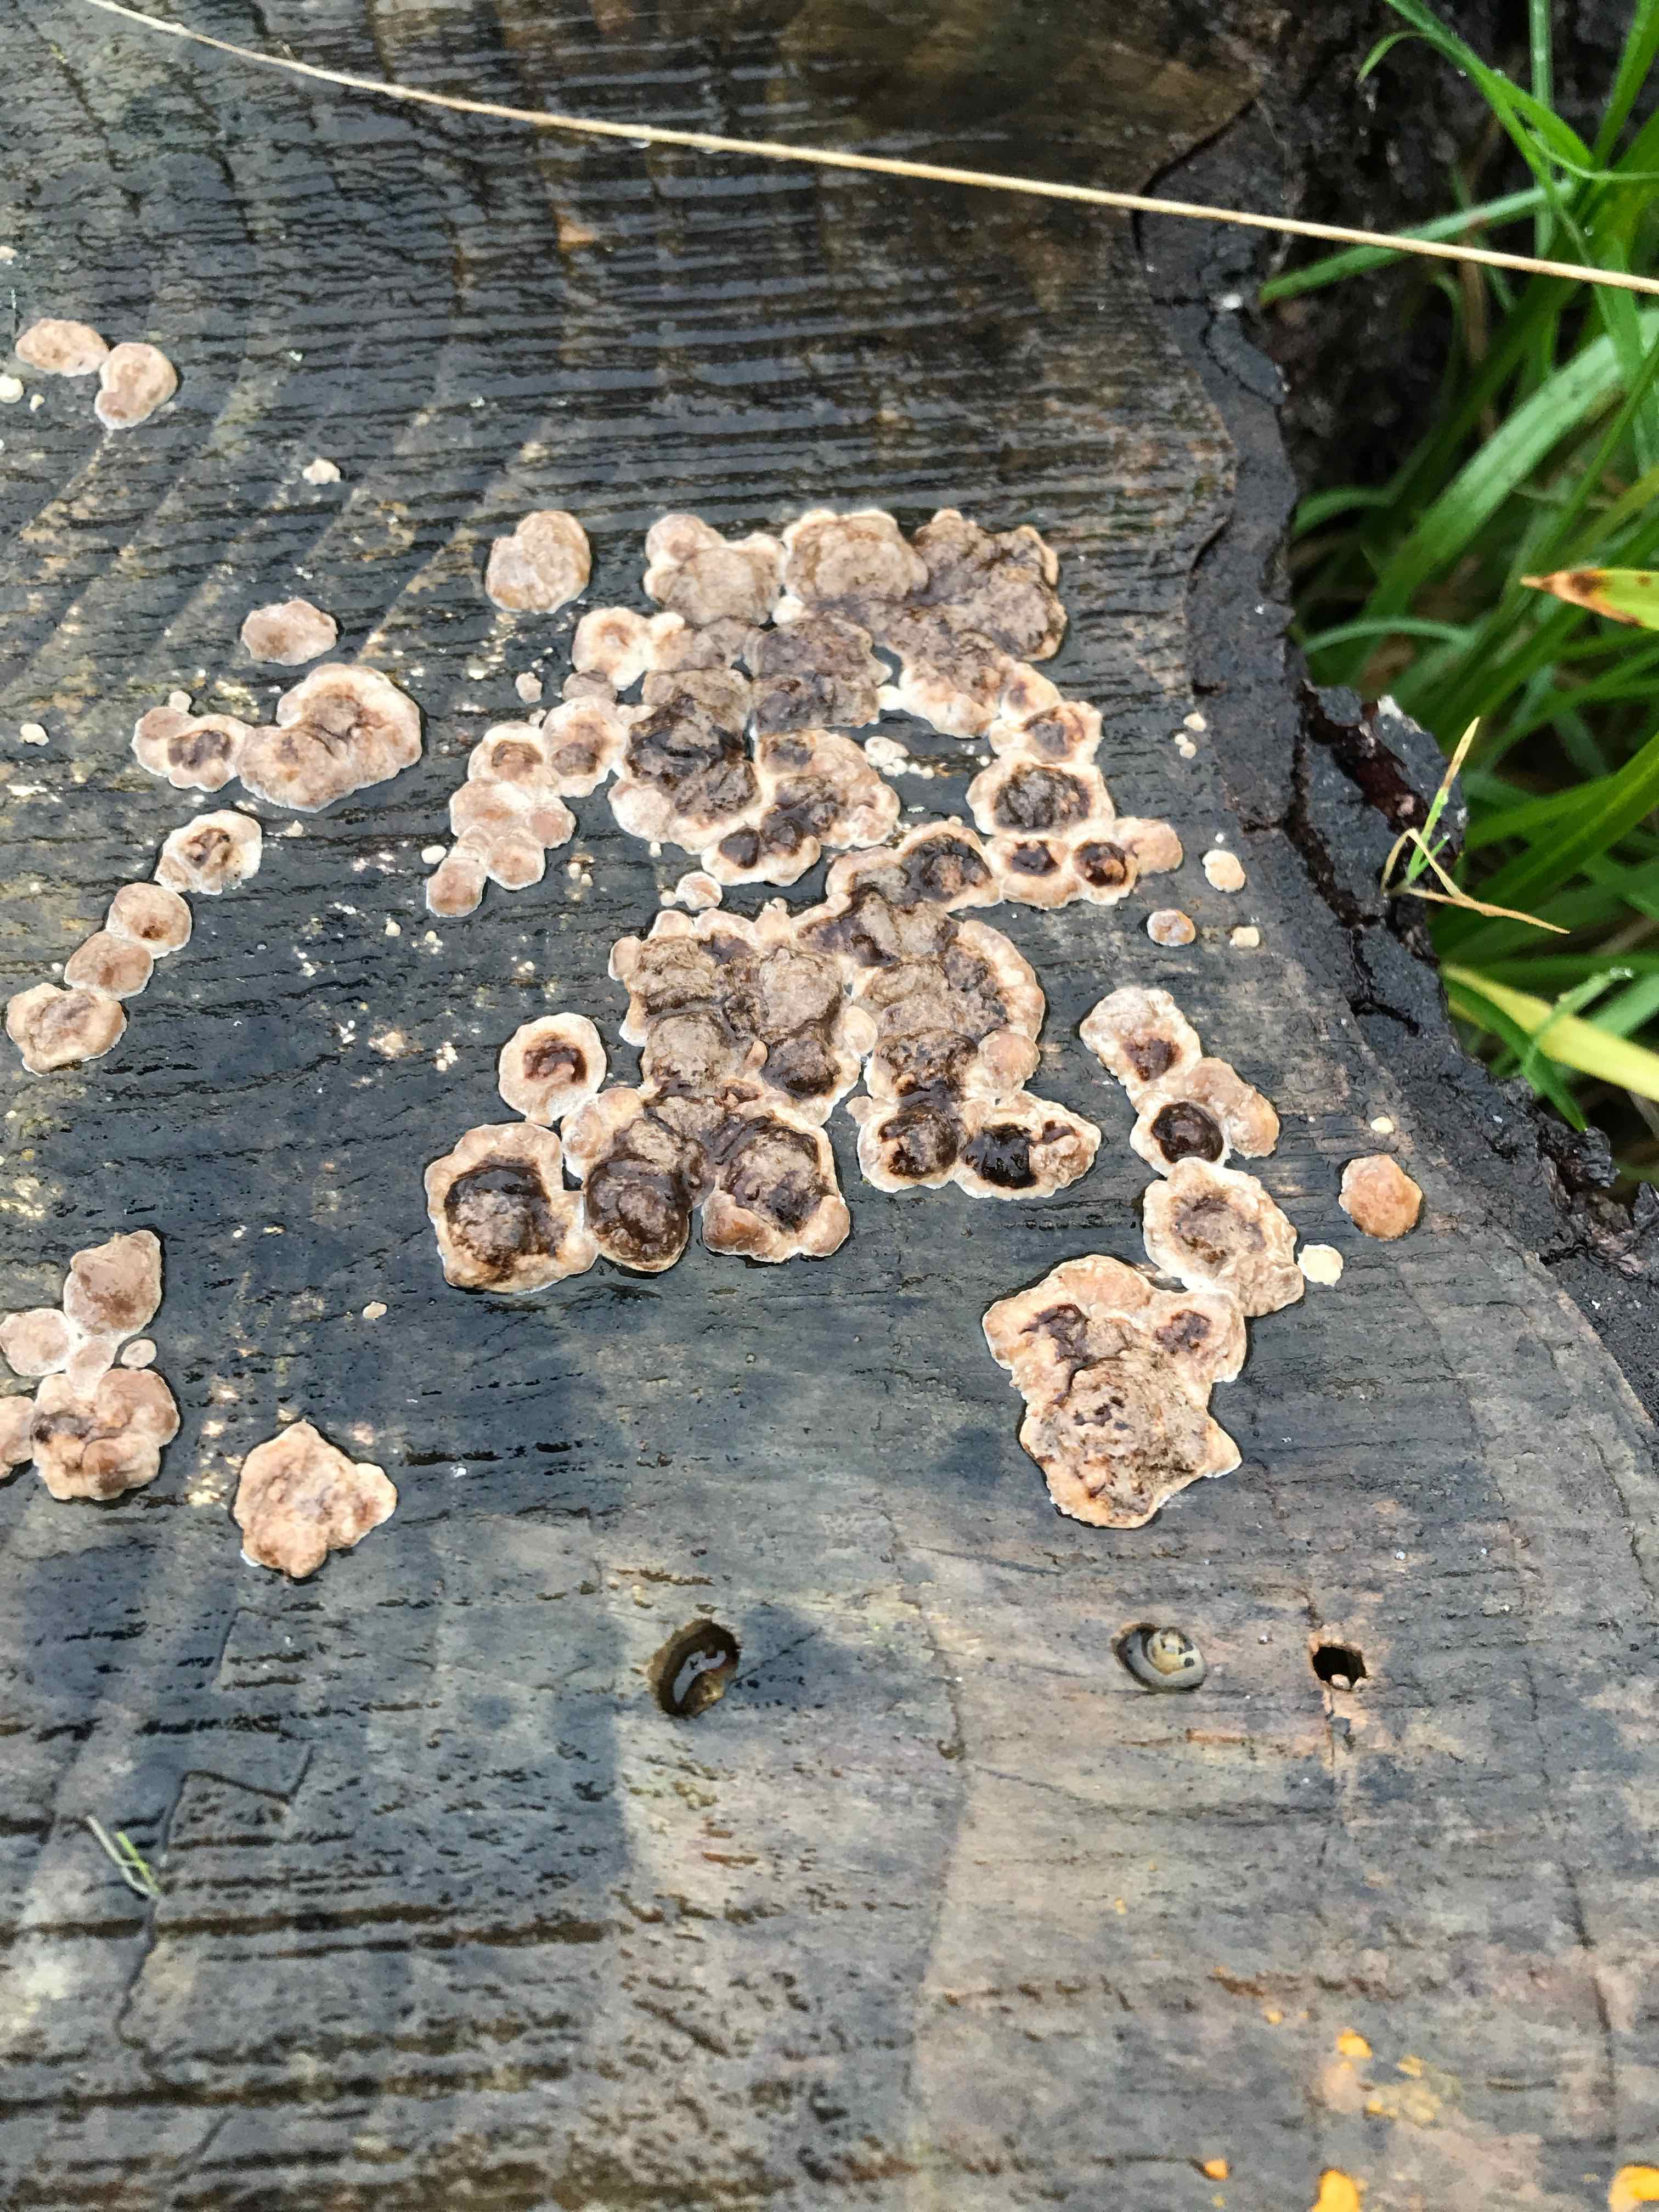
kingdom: Fungi
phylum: Basidiomycota
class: Agaricomycetes
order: Polyporales
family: Polyporaceae
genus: Trametes
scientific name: Trametes
